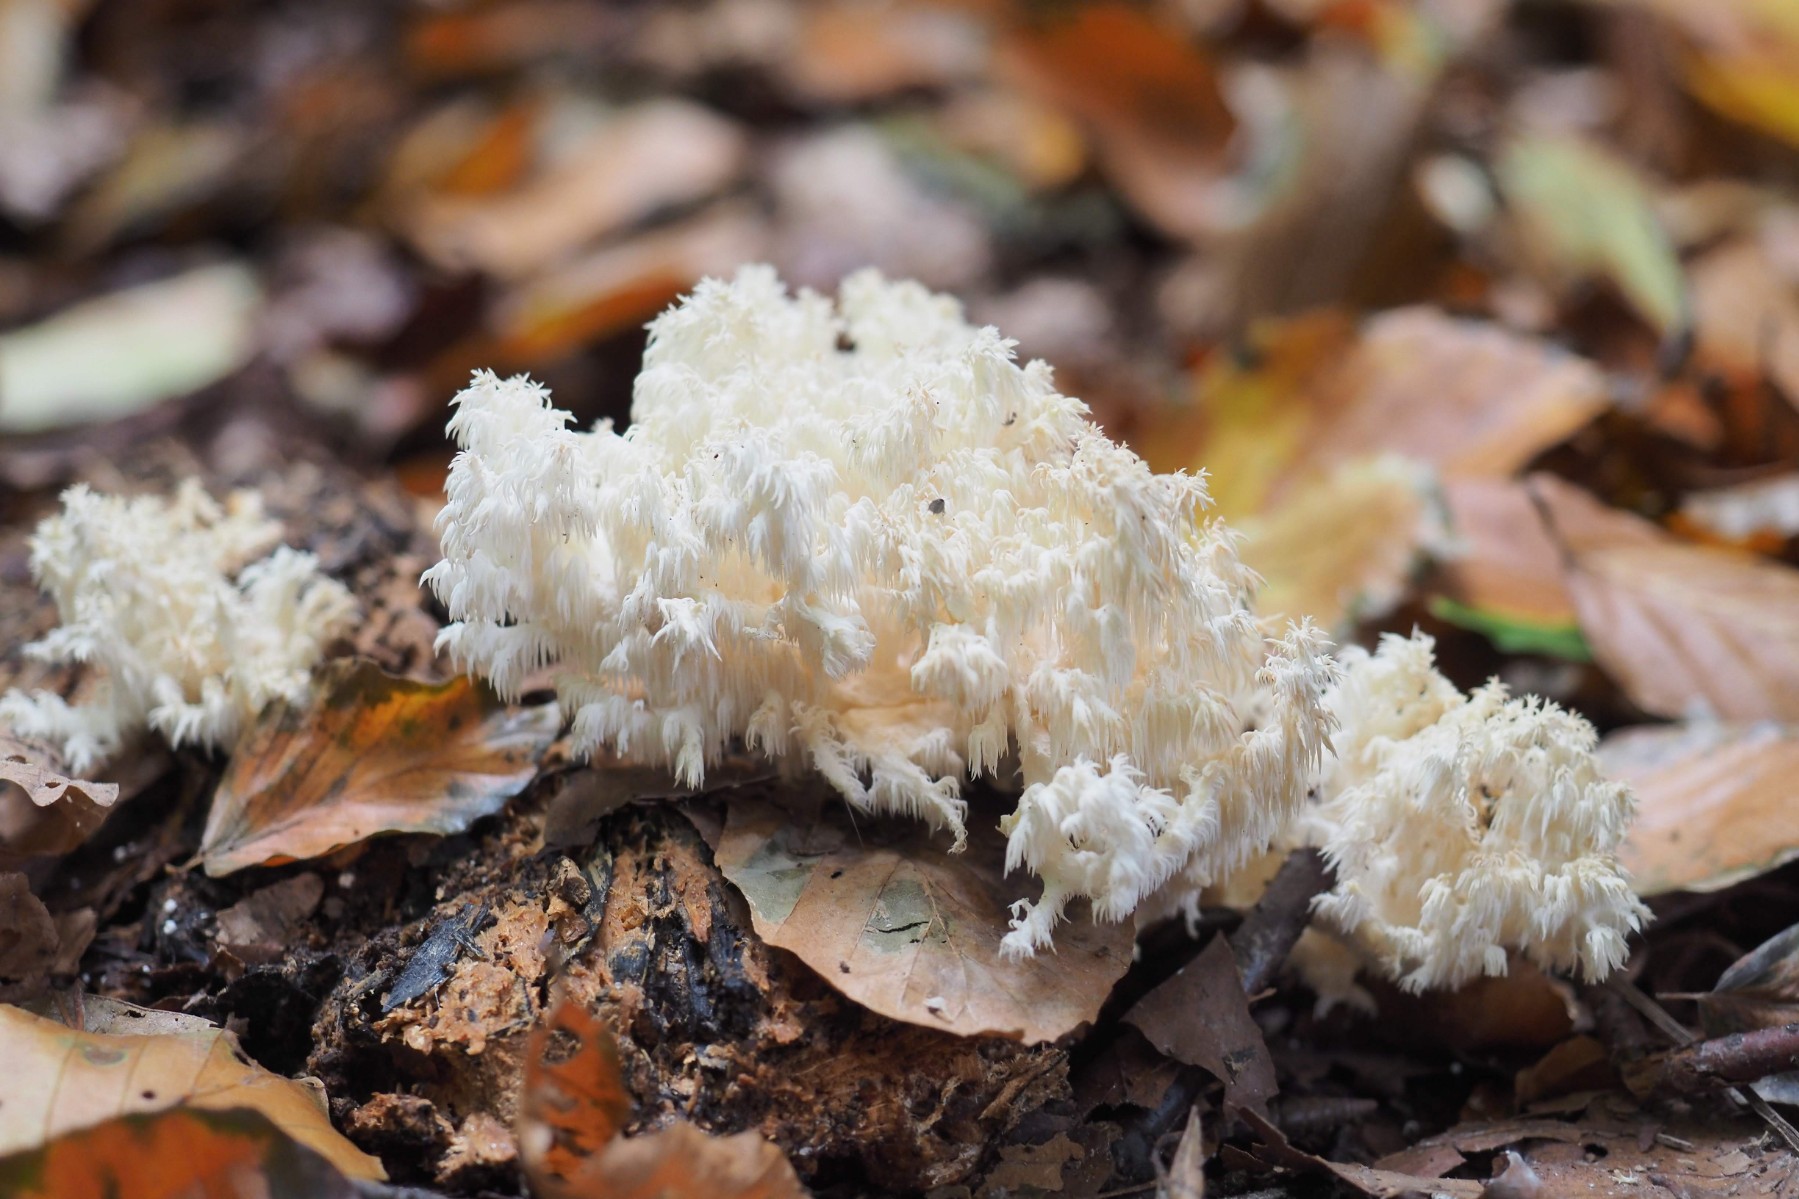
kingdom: Fungi
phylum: Basidiomycota
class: Agaricomycetes
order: Russulales
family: Hericiaceae
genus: Hericium
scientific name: Hericium coralloides
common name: koralpigsvamp
